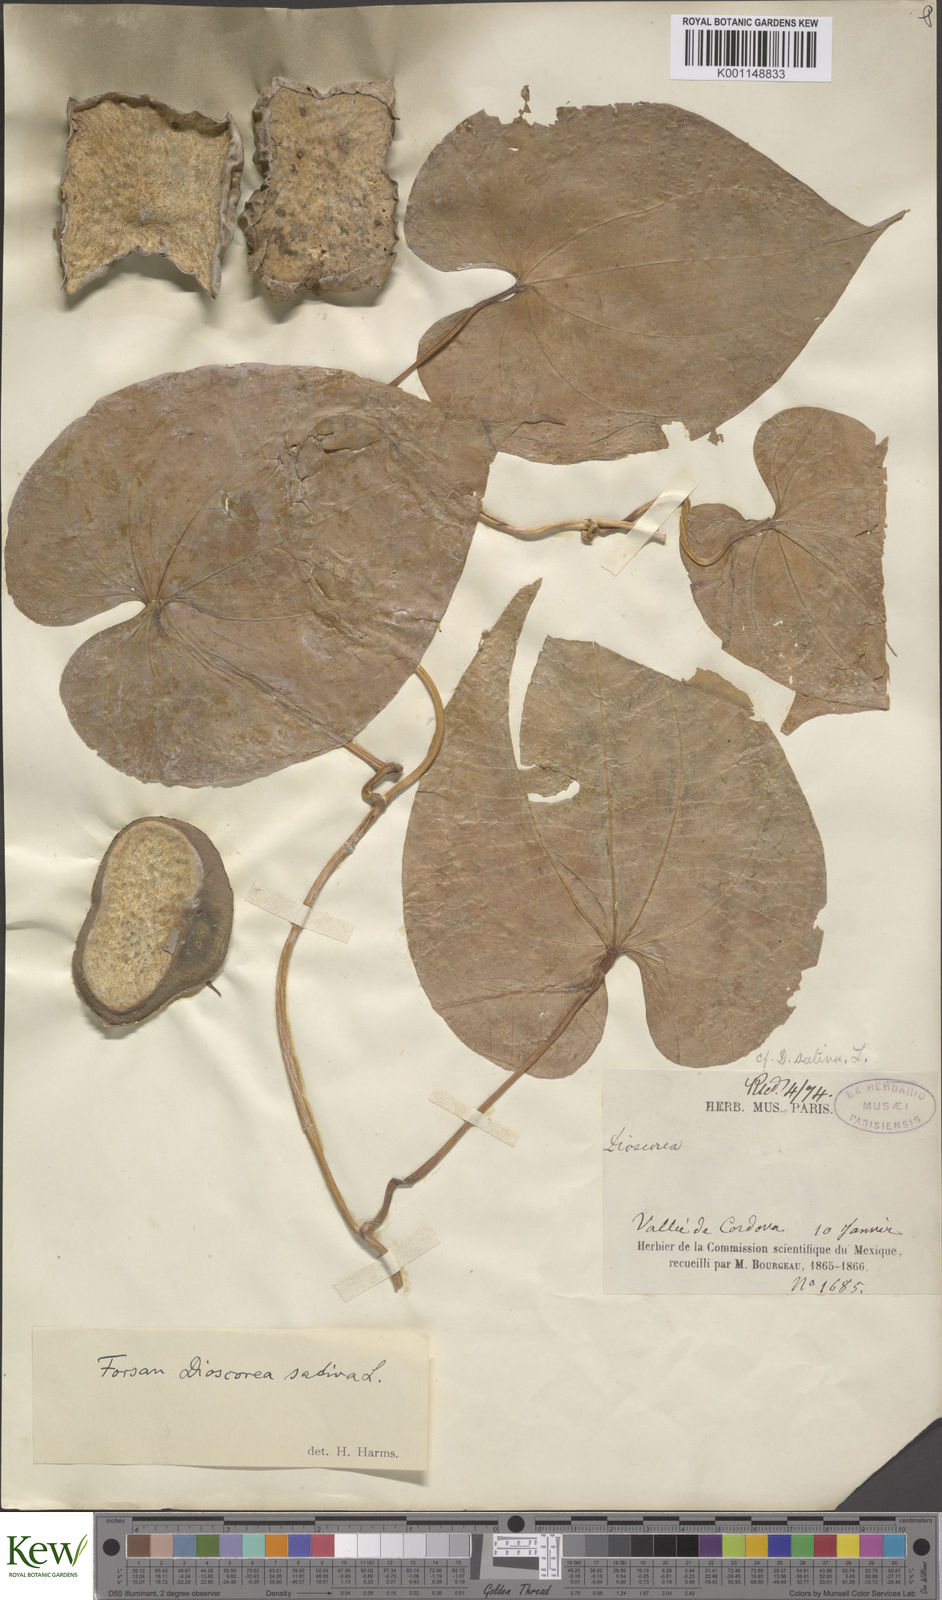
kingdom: Plantae
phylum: Tracheophyta
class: Liliopsida
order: Dioscoreales
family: Dioscoreaceae
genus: Dioscorea
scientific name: Dioscorea bulbifera
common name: Air yam
